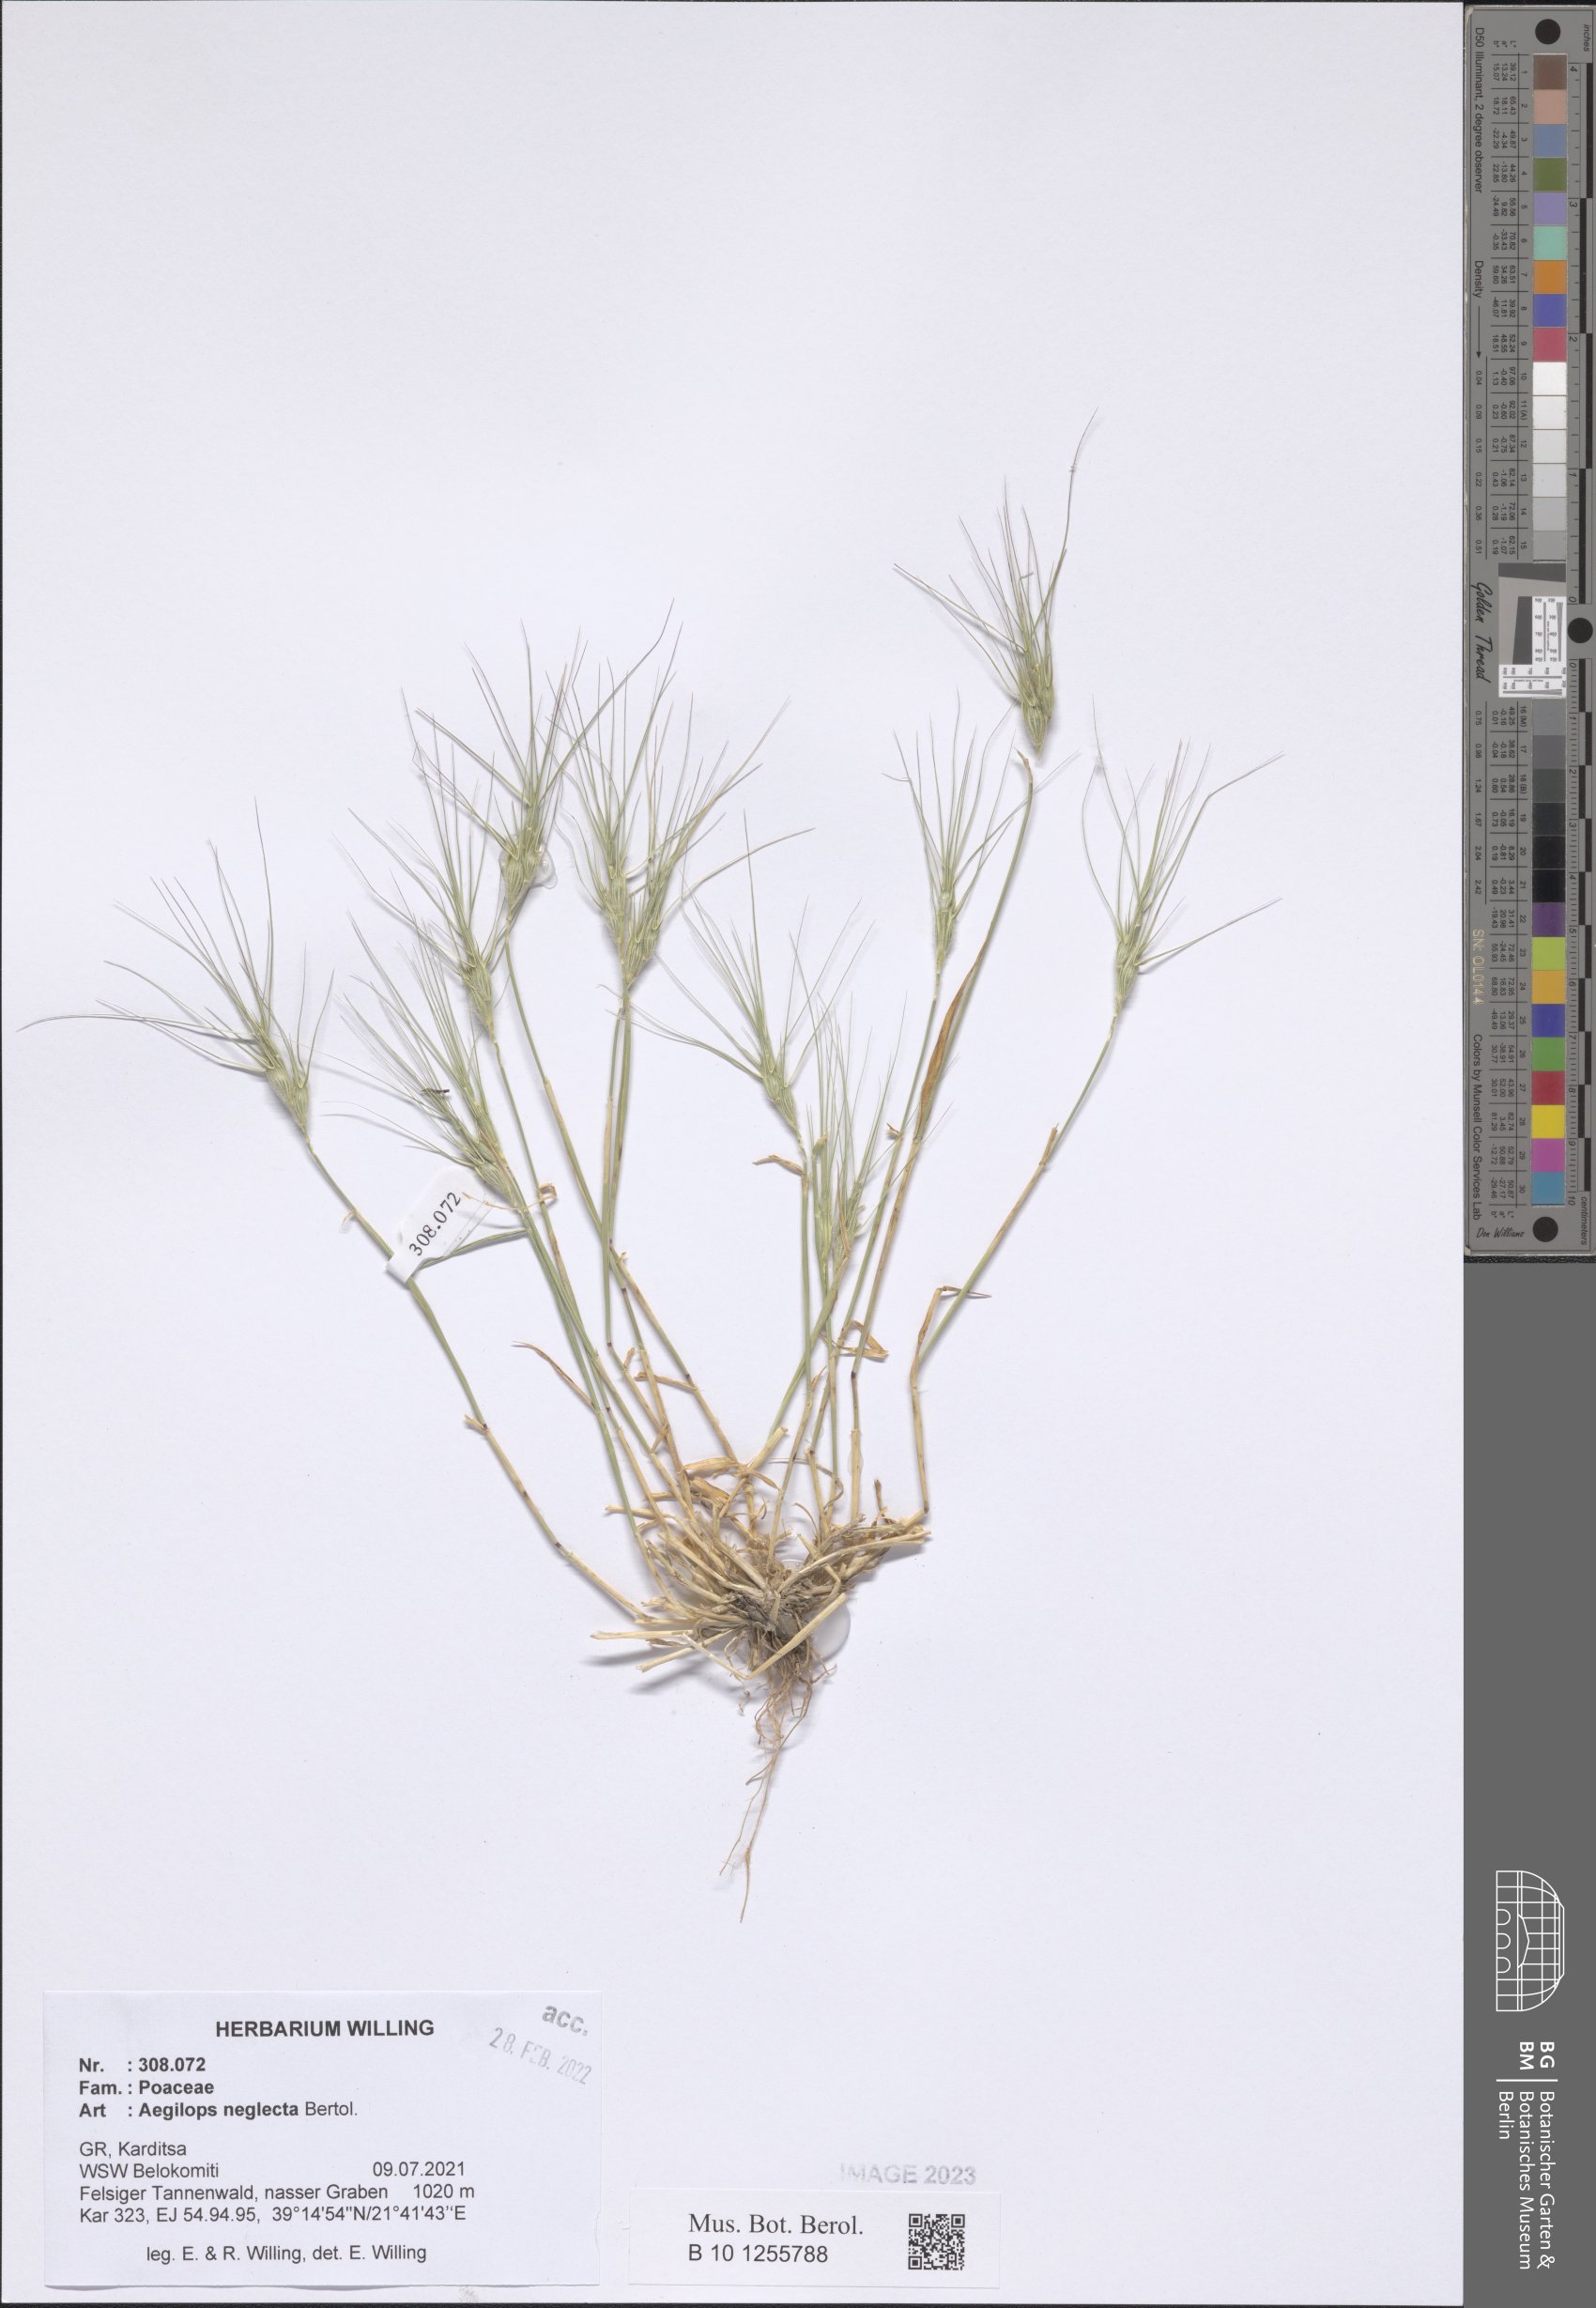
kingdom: Plantae
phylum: Tracheophyta
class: Liliopsida
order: Poales
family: Poaceae
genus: Aegilops
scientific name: Aegilops neglecta
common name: Three-awn goat grass
